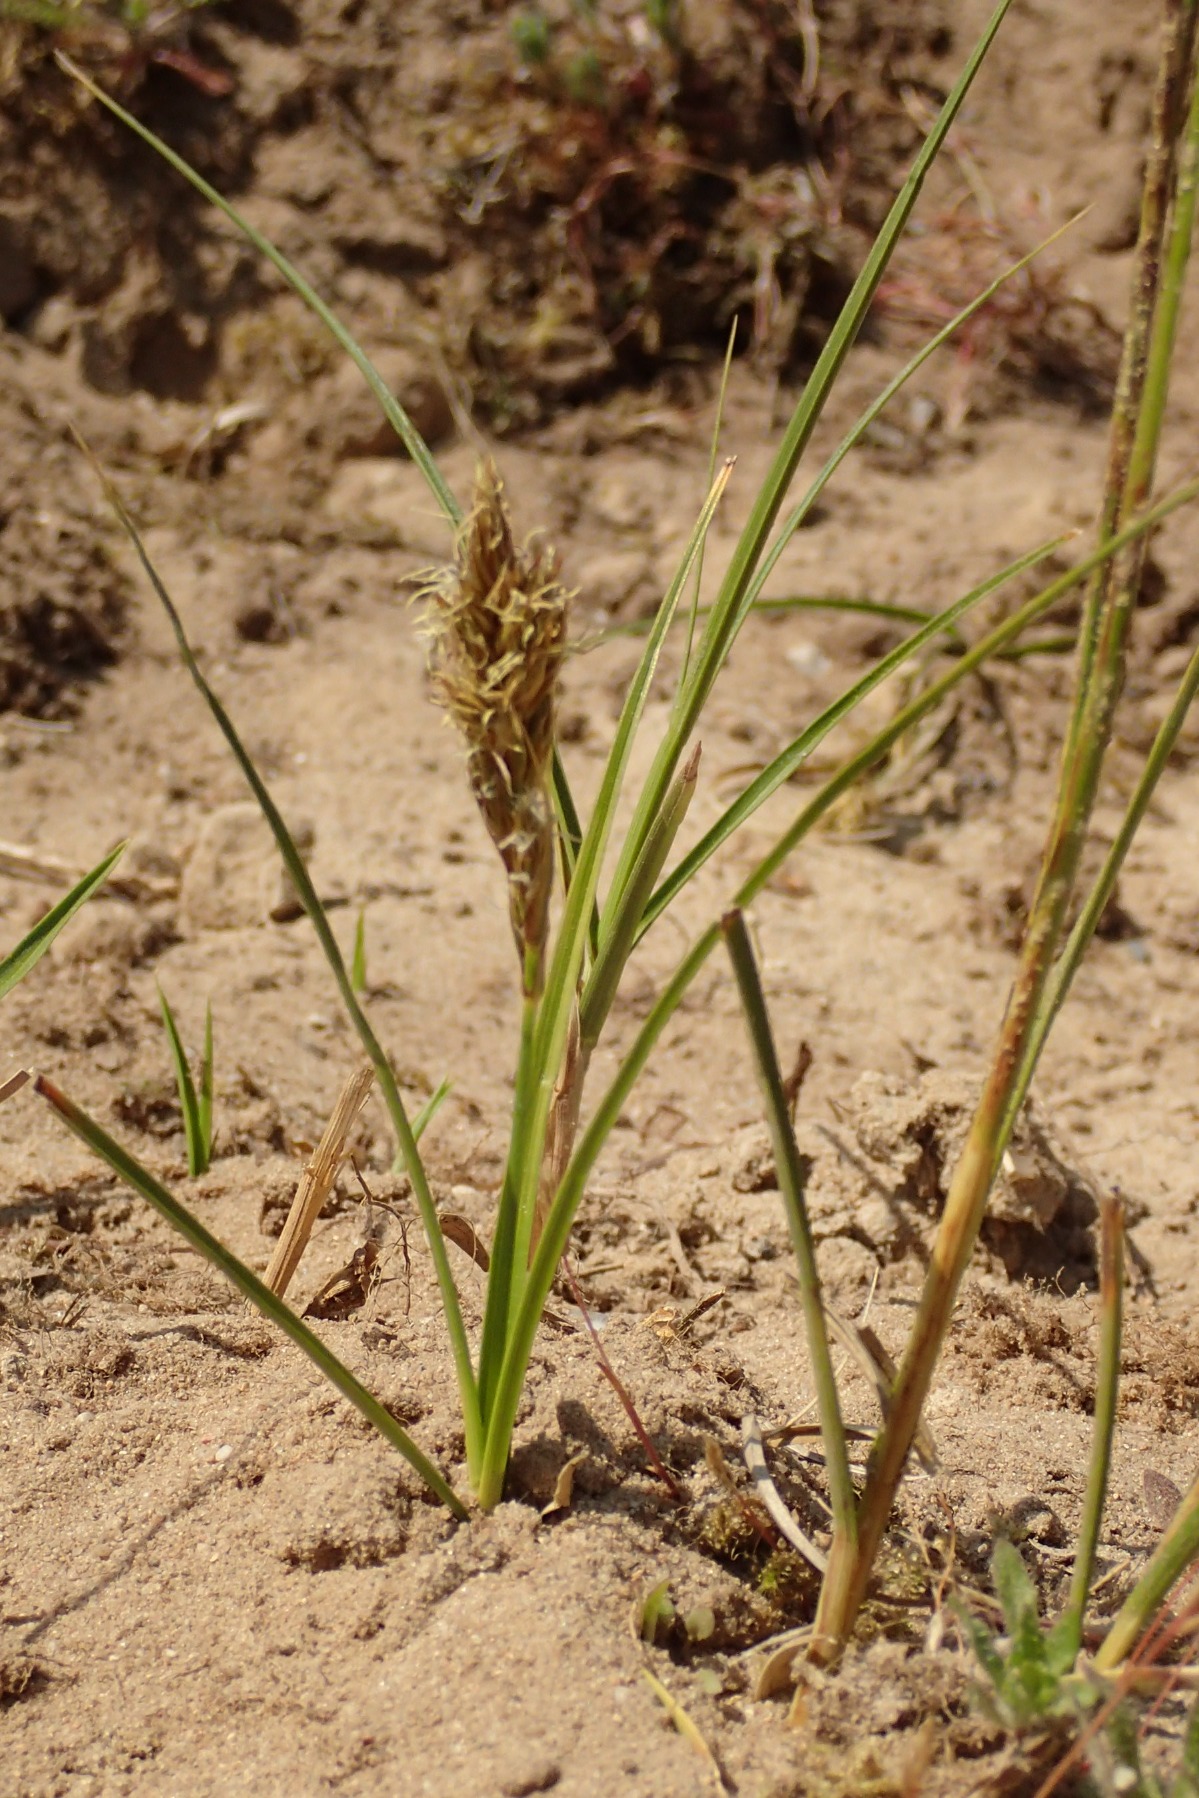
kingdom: Plantae
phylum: Tracheophyta
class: Liliopsida
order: Poales
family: Cyperaceae
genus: Carex
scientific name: Carex arenaria
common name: Sand-star
